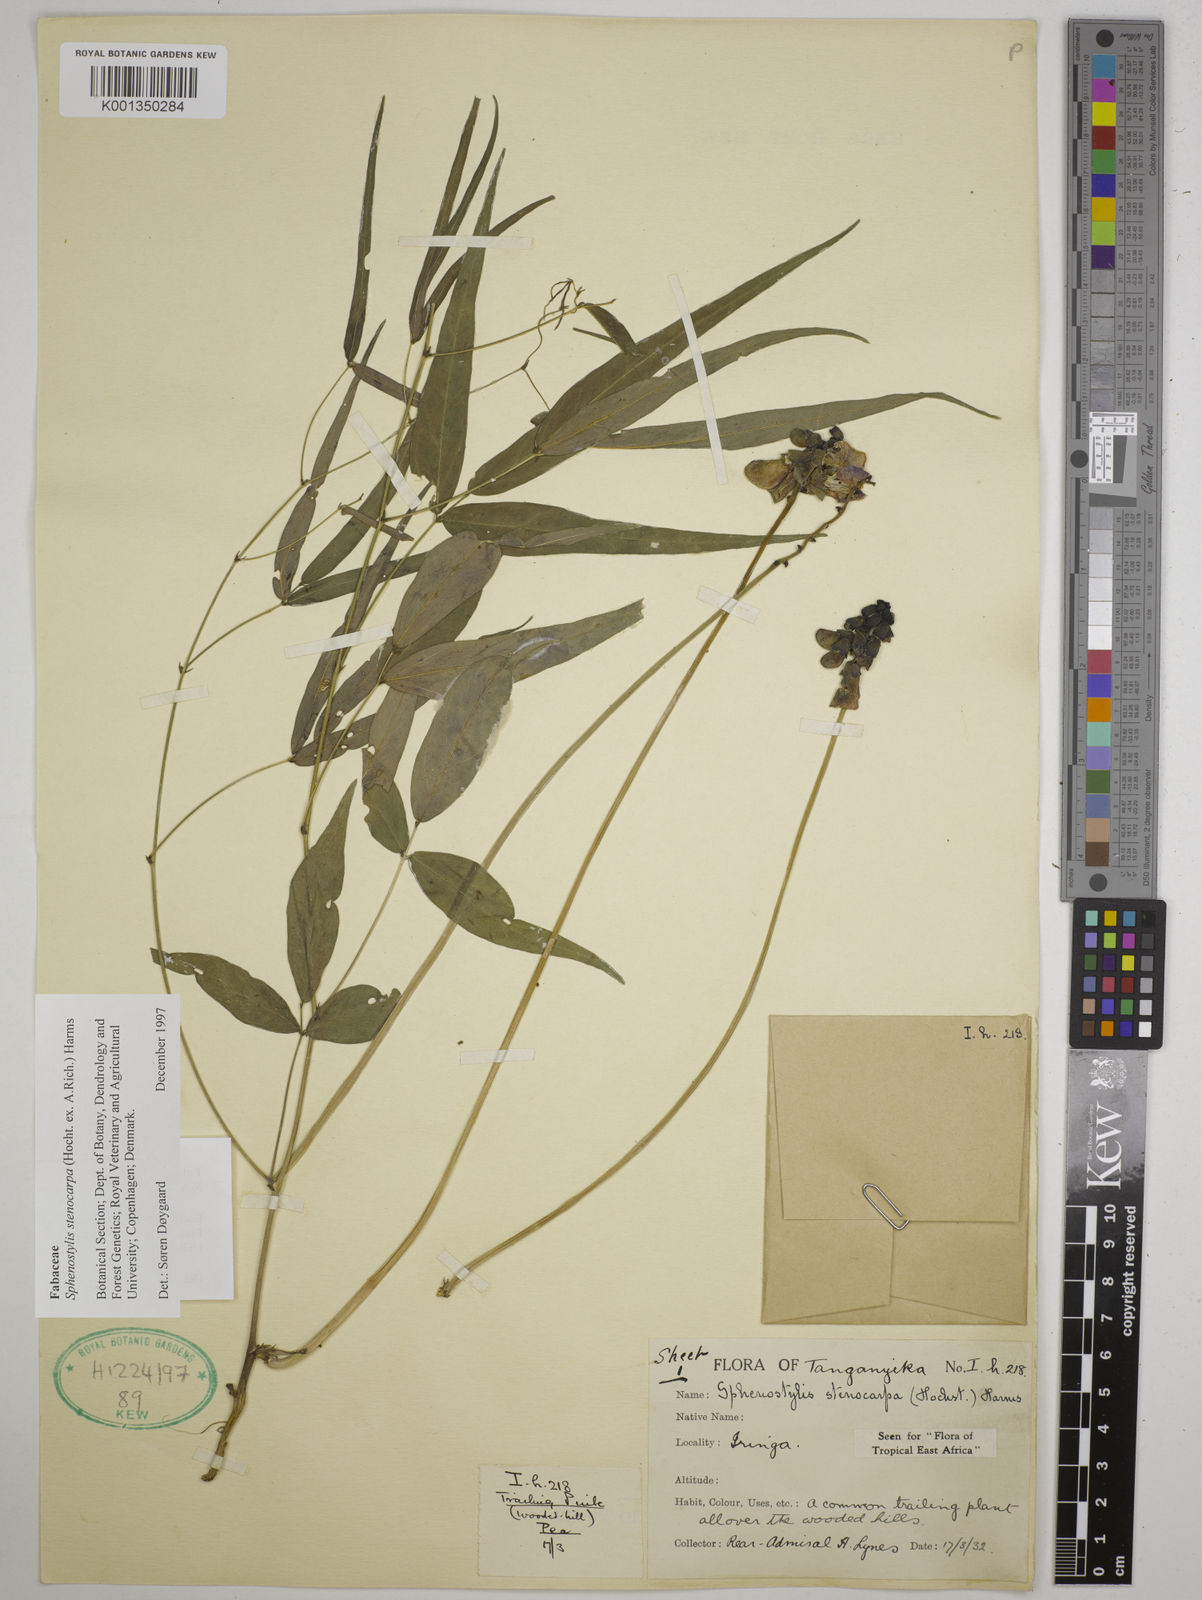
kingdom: Plantae
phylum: Tracheophyta
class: Magnoliopsida
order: Fabales
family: Fabaceae
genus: Sphenostylis
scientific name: Sphenostylis stenocarpa
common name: Yam-pea
